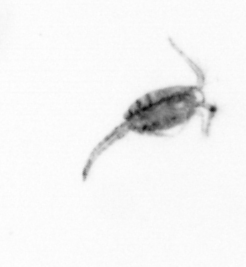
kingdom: Animalia
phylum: Arthropoda
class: Copepoda
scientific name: Copepoda
